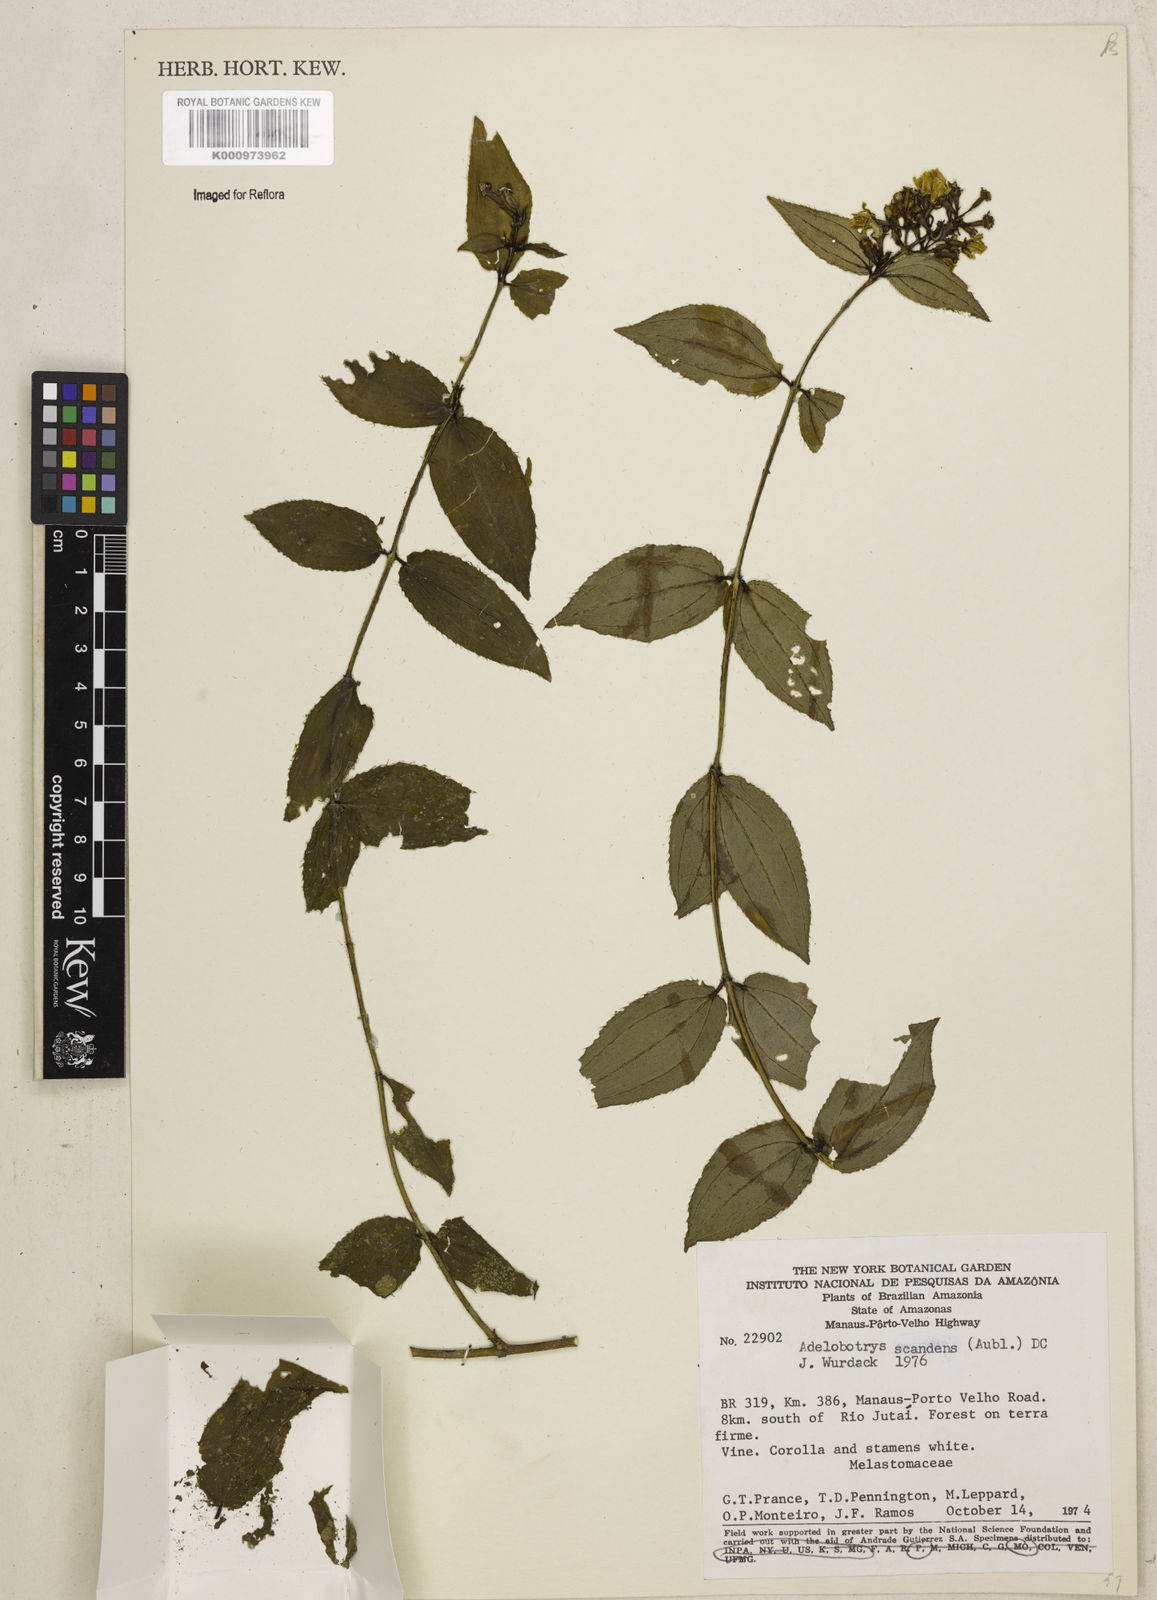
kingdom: Plantae
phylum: Tracheophyta
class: Magnoliopsida
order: Myrtales
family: Melastomataceae
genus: Adelobotrys
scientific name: Adelobotrys scandens
